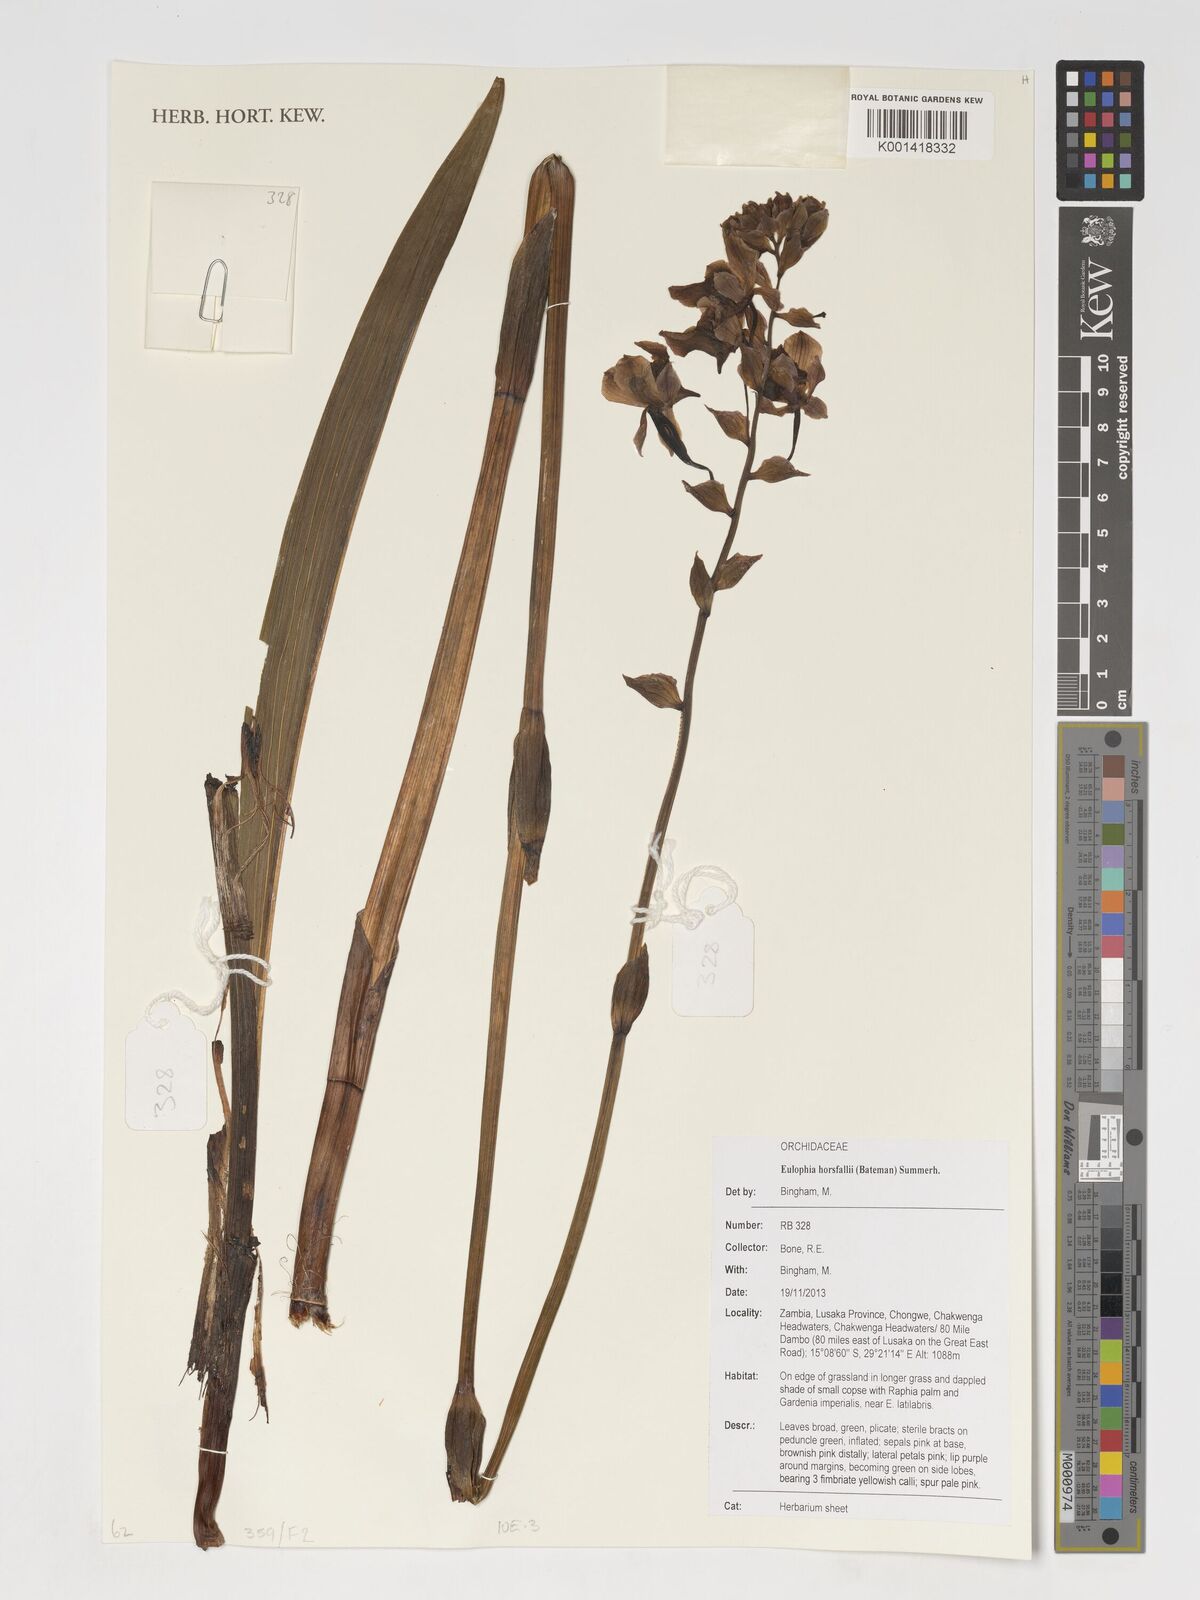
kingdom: Plantae
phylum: Tracheophyta
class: Liliopsida
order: Asparagales
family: Orchidaceae
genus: Eulophia
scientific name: Eulophia horsfallii
